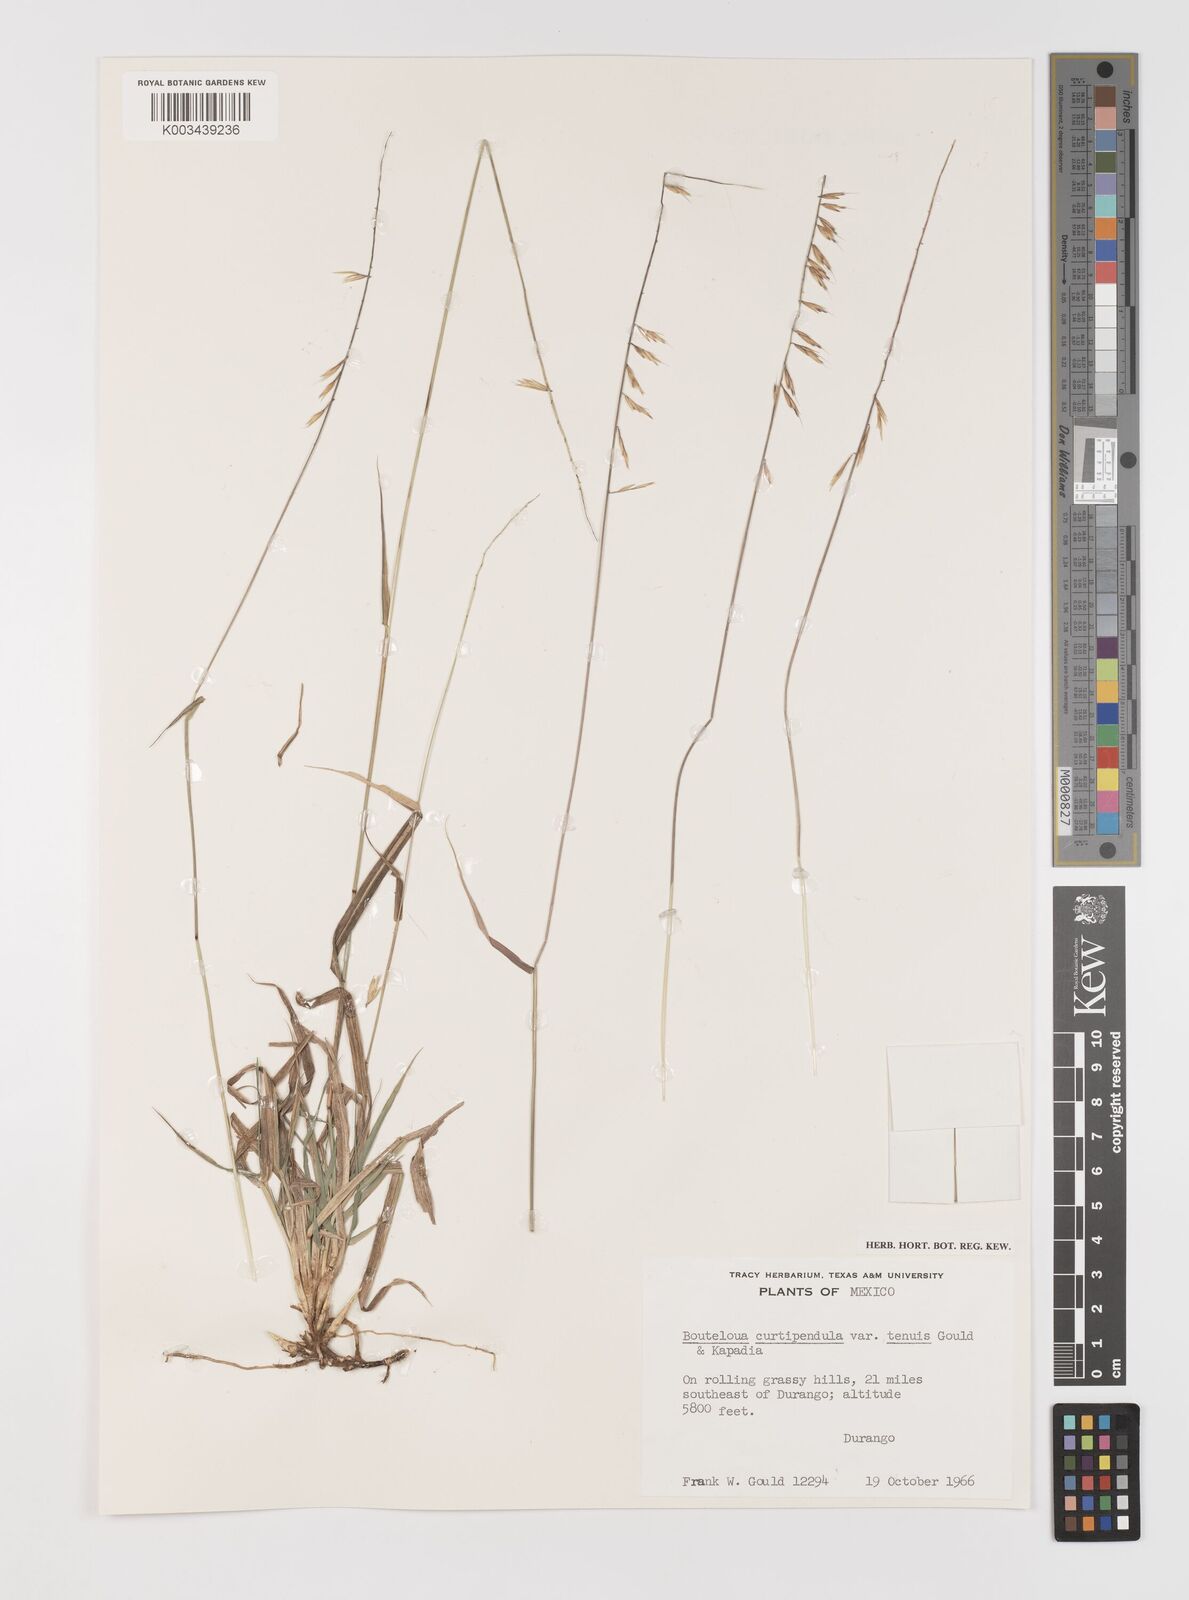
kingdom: Plantae
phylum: Tracheophyta
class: Liliopsida
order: Poales
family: Poaceae
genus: Bouteloua
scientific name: Bouteloua curtipendula
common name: Side-oats grama
